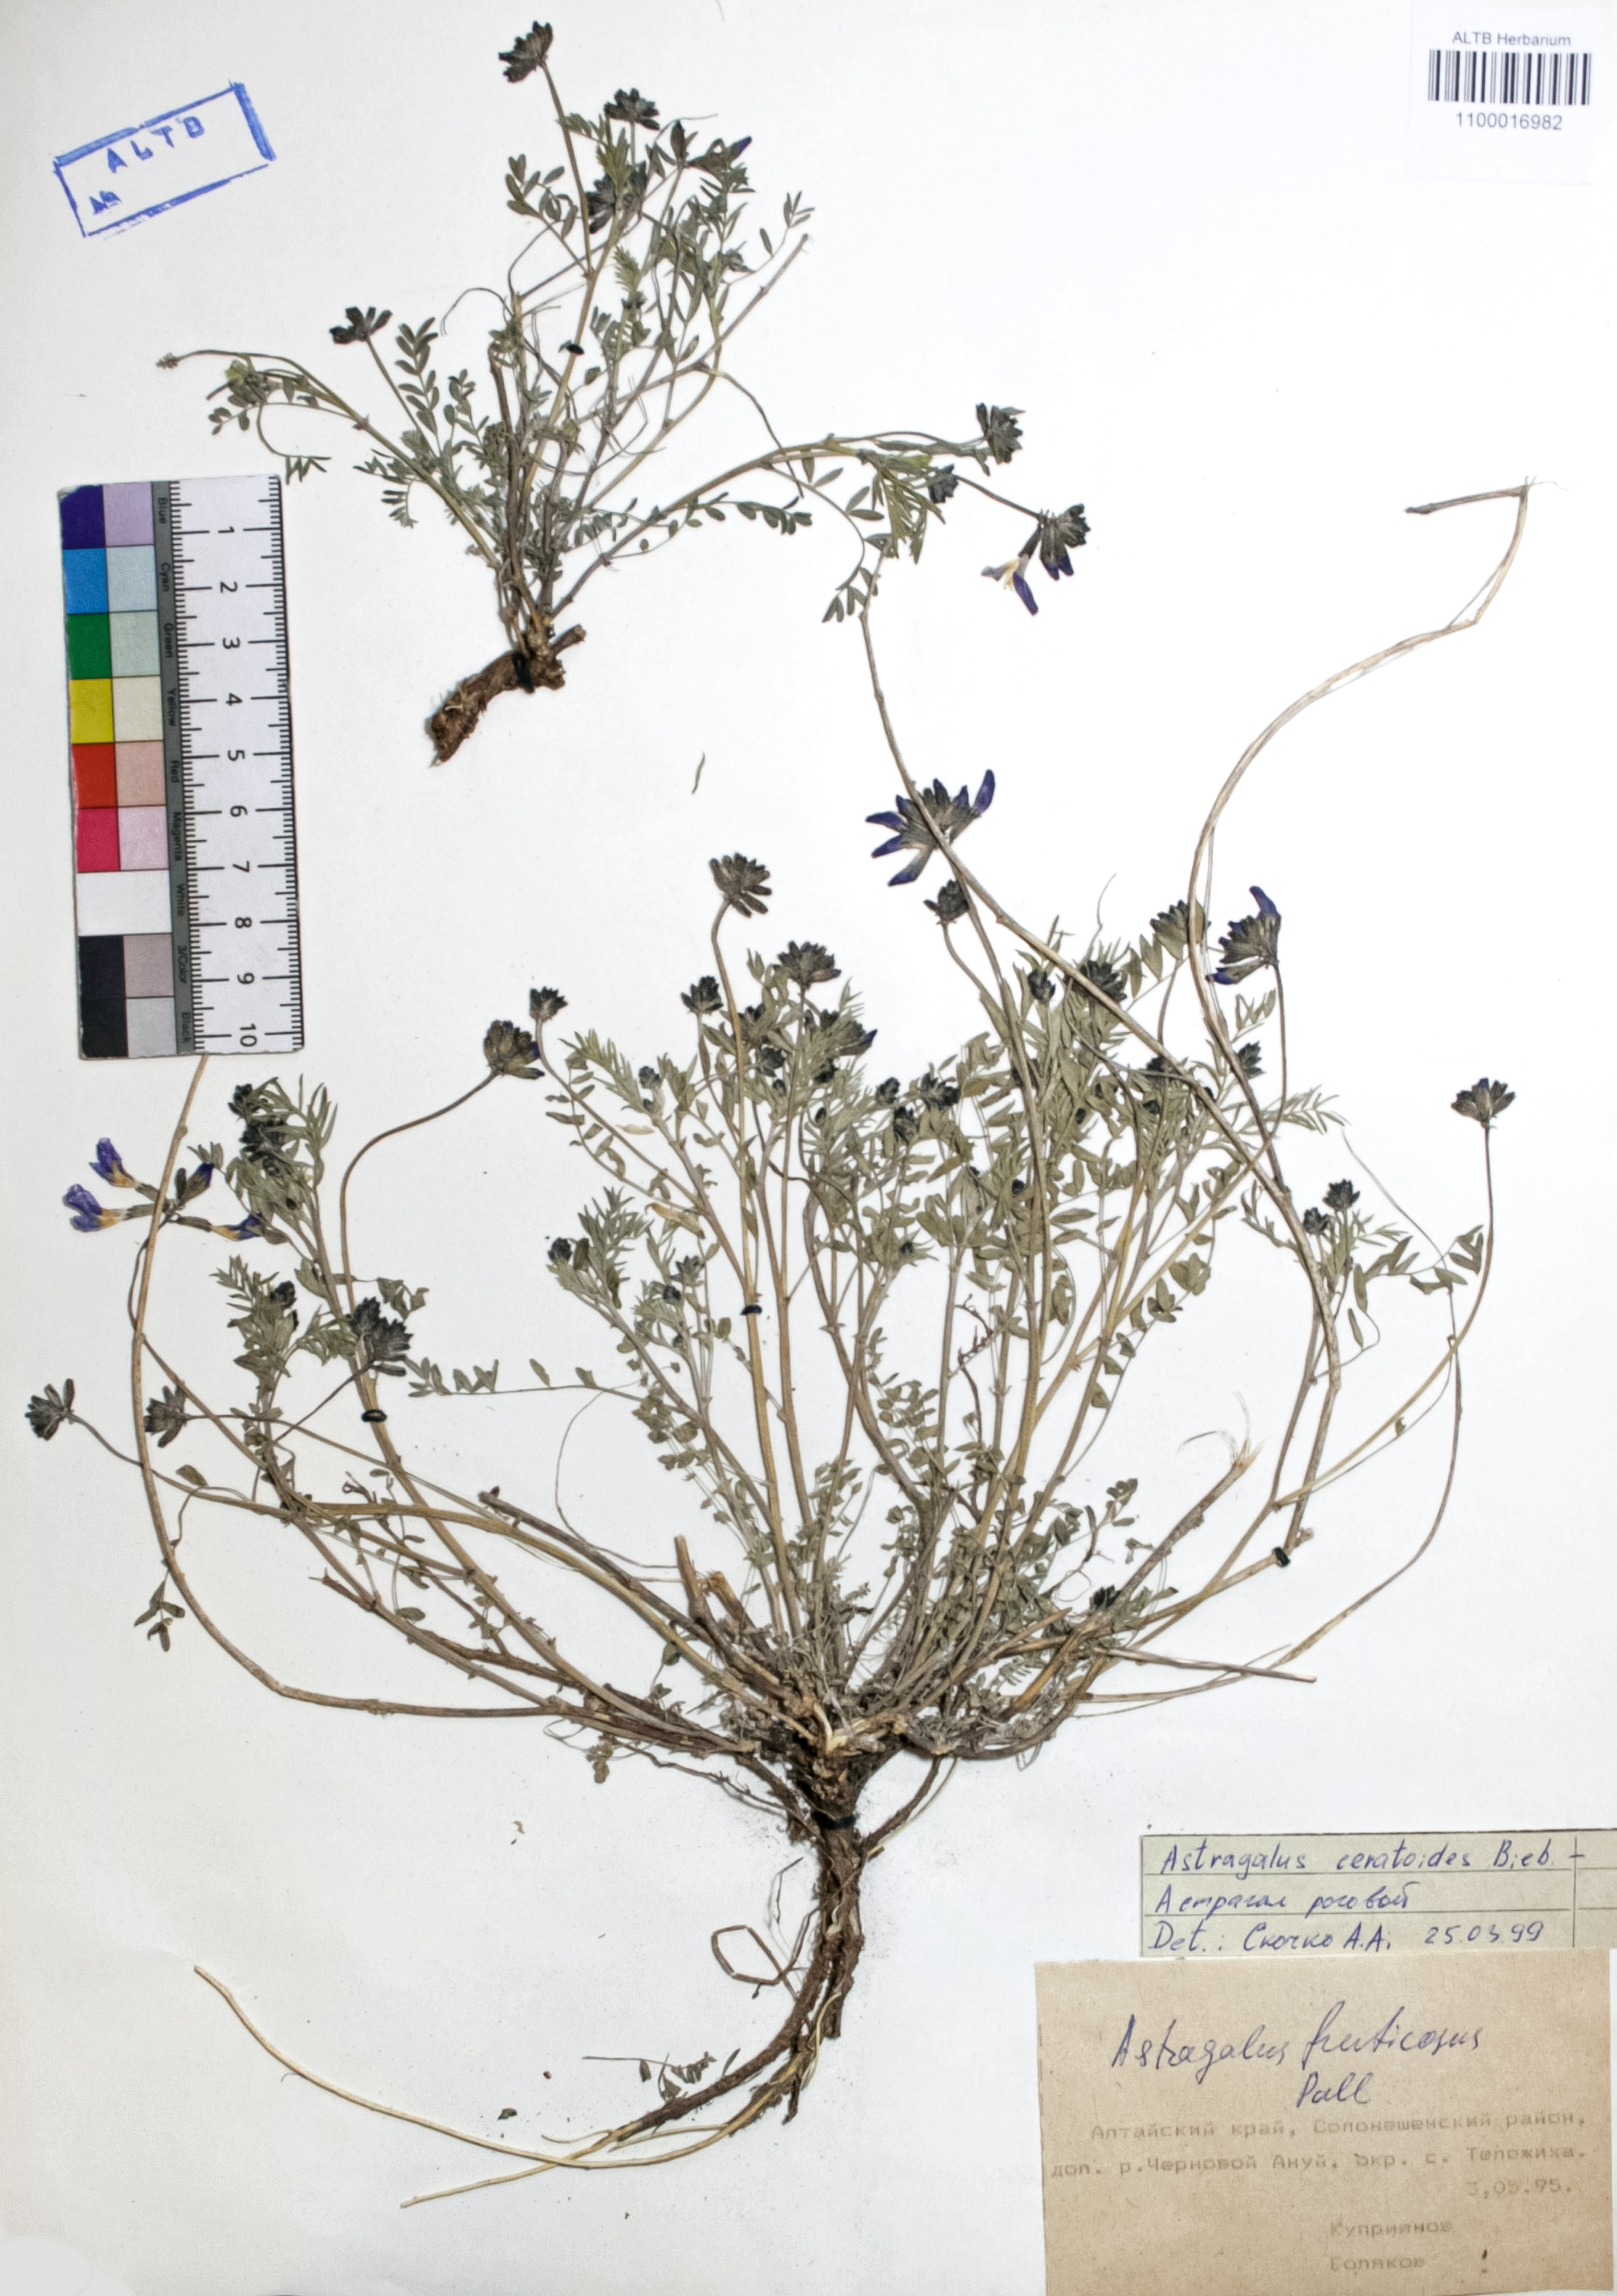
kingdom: Plantae
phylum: Tracheophyta
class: Magnoliopsida
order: Fabales
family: Fabaceae
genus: Astragalus
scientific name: Astragalus ceratoides
